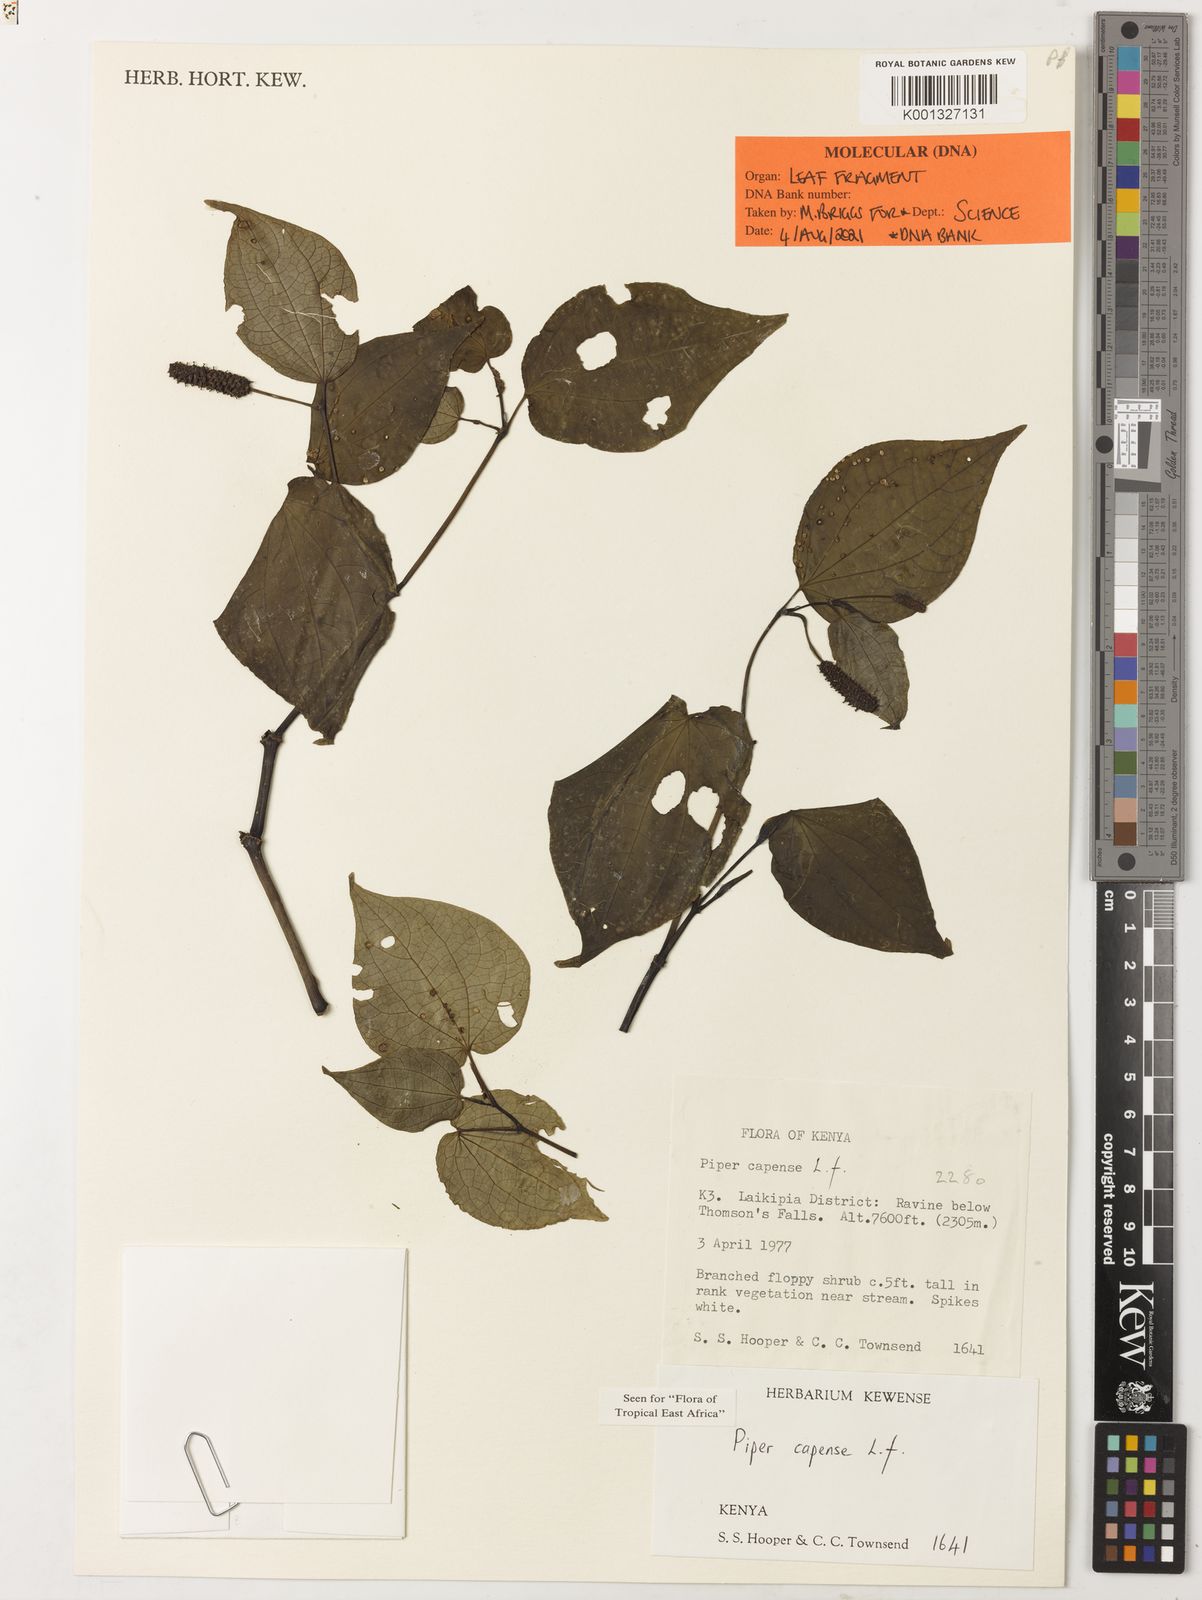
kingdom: Plantae
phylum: Tracheophyta
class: Magnoliopsida
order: Piperales
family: Piperaceae
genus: Piper
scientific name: Piper capense
